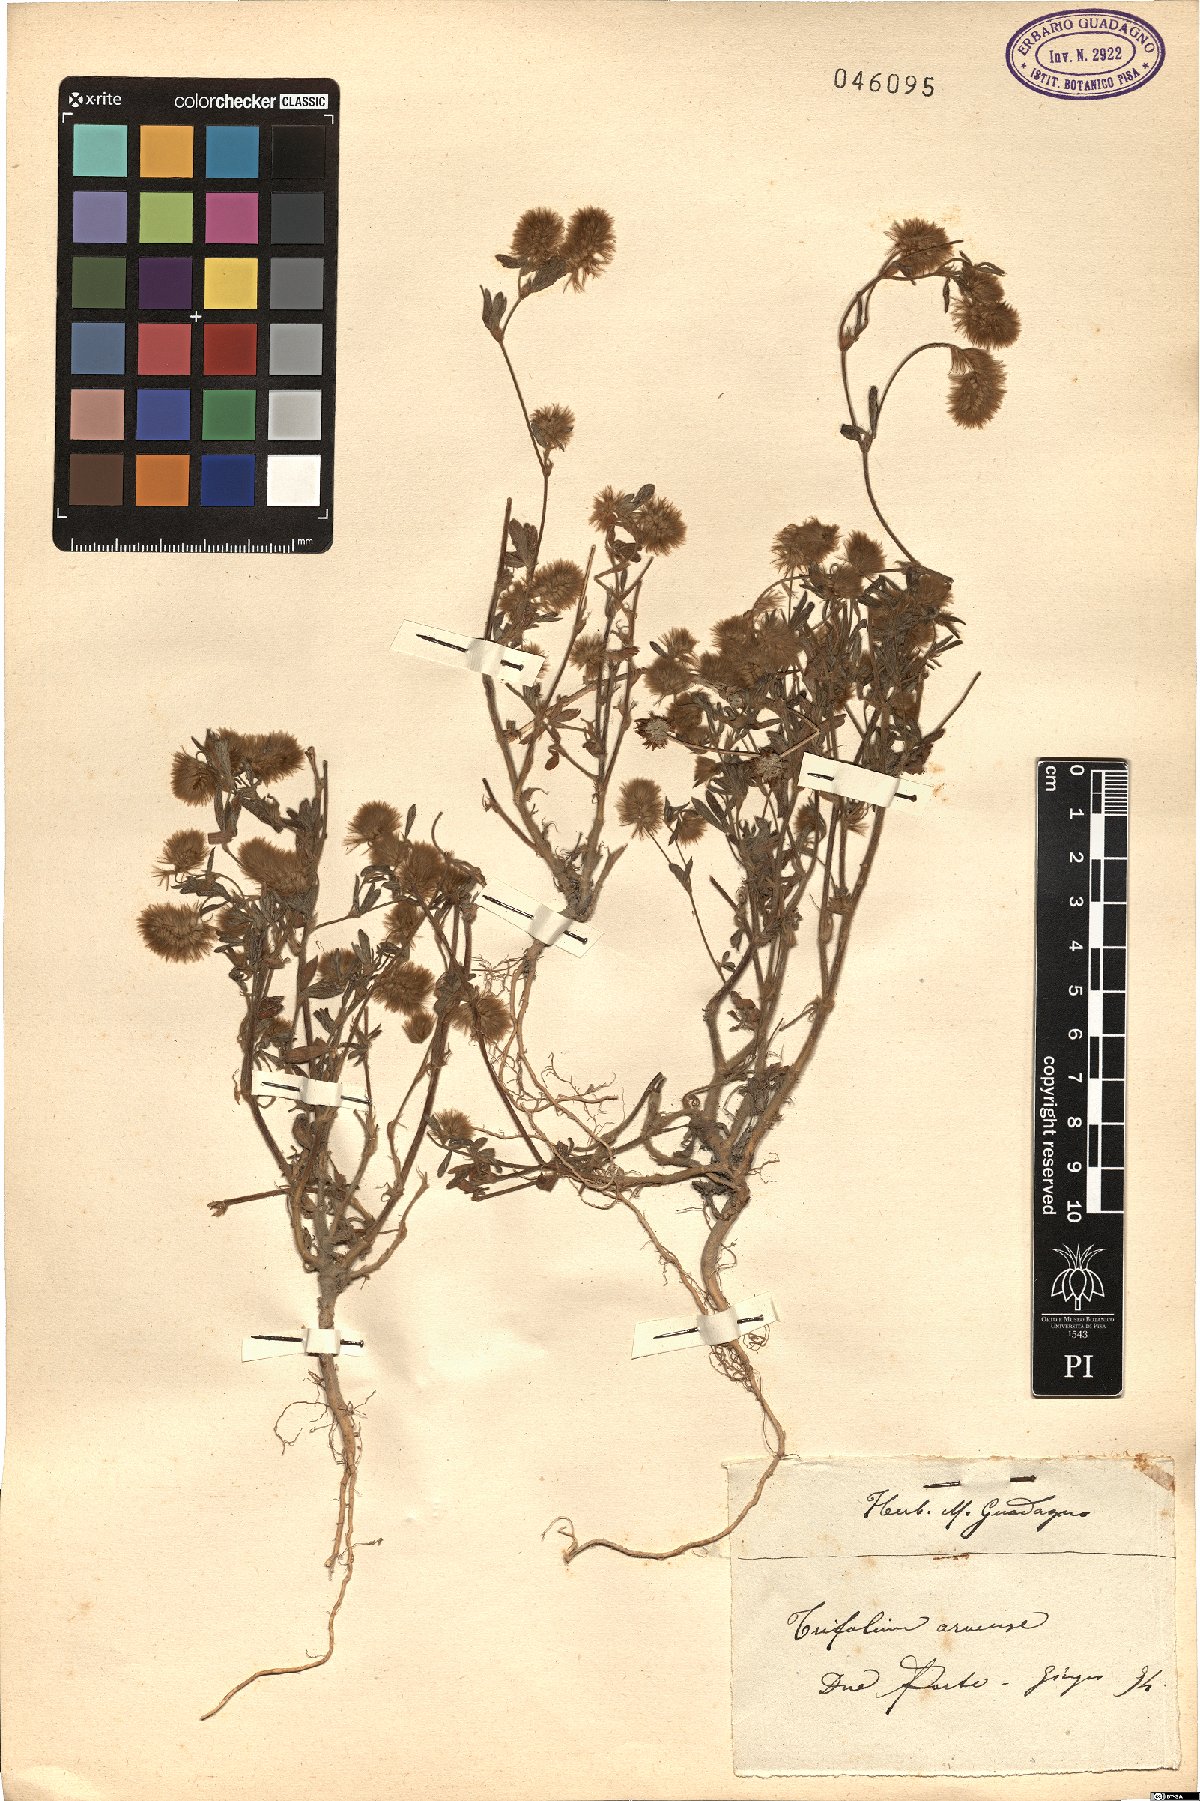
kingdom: Plantae
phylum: Tracheophyta
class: Magnoliopsida
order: Fabales
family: Fabaceae
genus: Trifolium
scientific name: Trifolium arvense
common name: Hare's-foot clover
